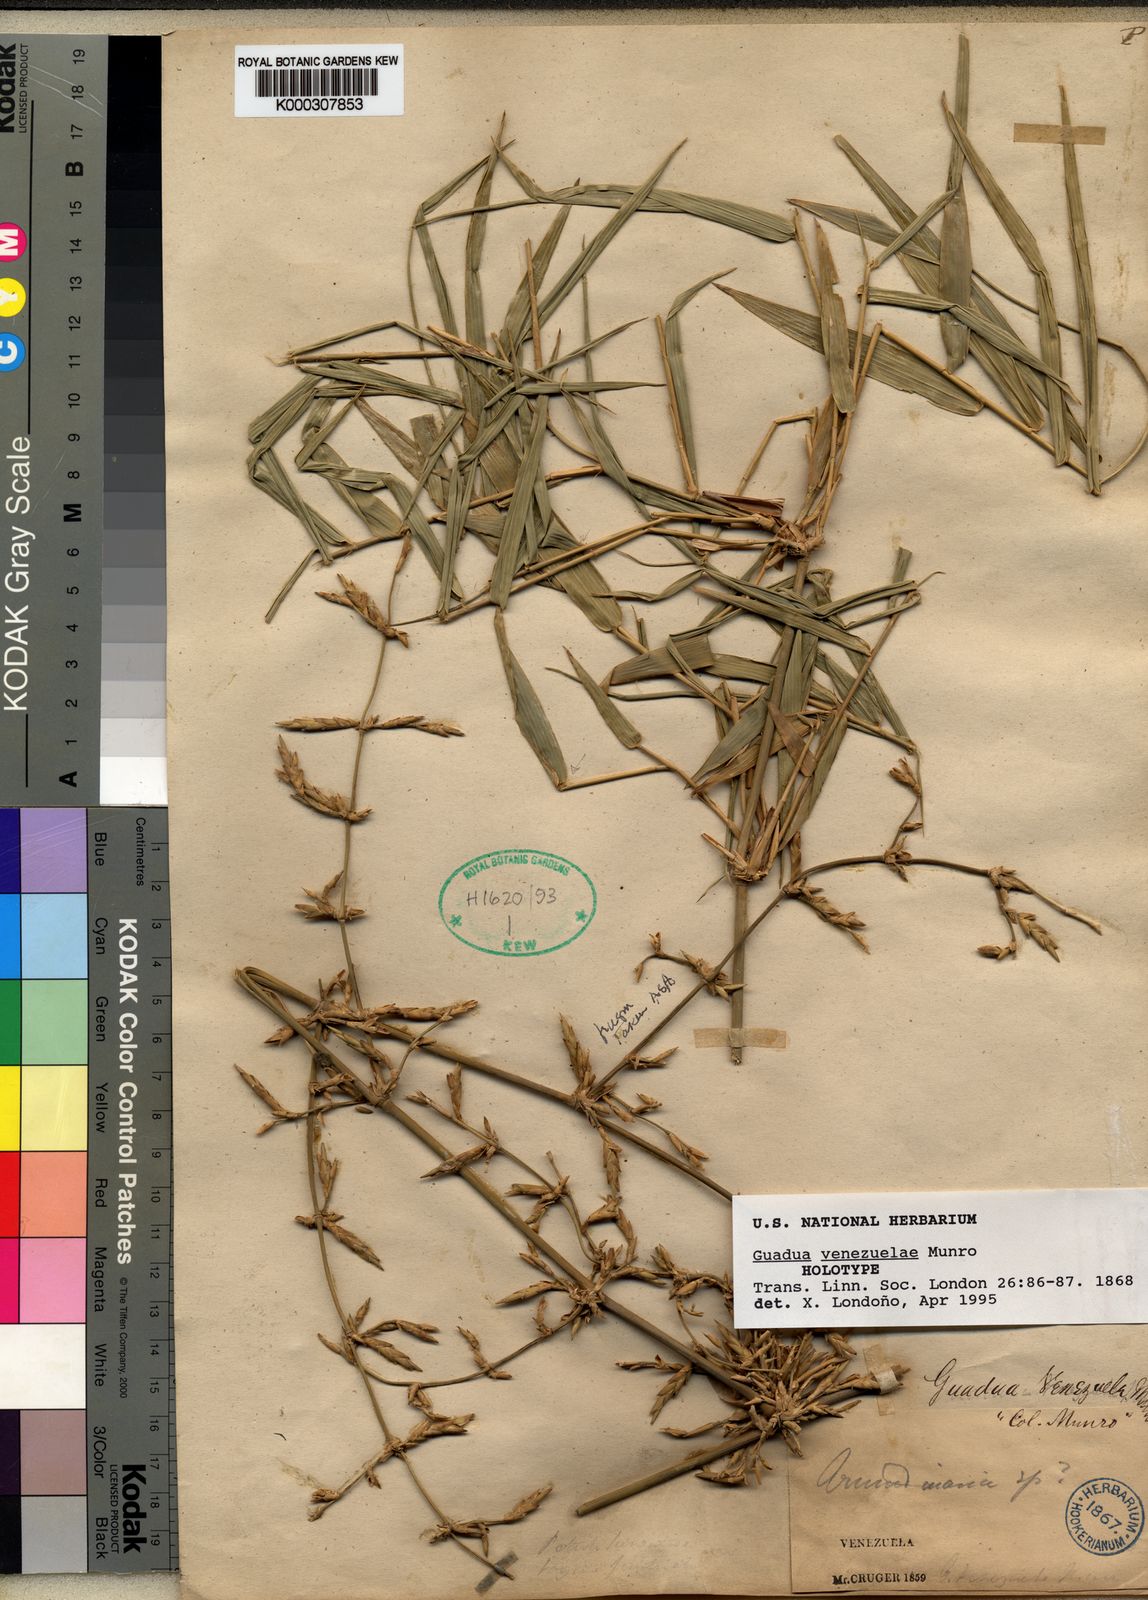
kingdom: Plantae
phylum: Tracheophyta
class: Liliopsida
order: Poales
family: Poaceae
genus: Guadua
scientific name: Guadua venezuelae
